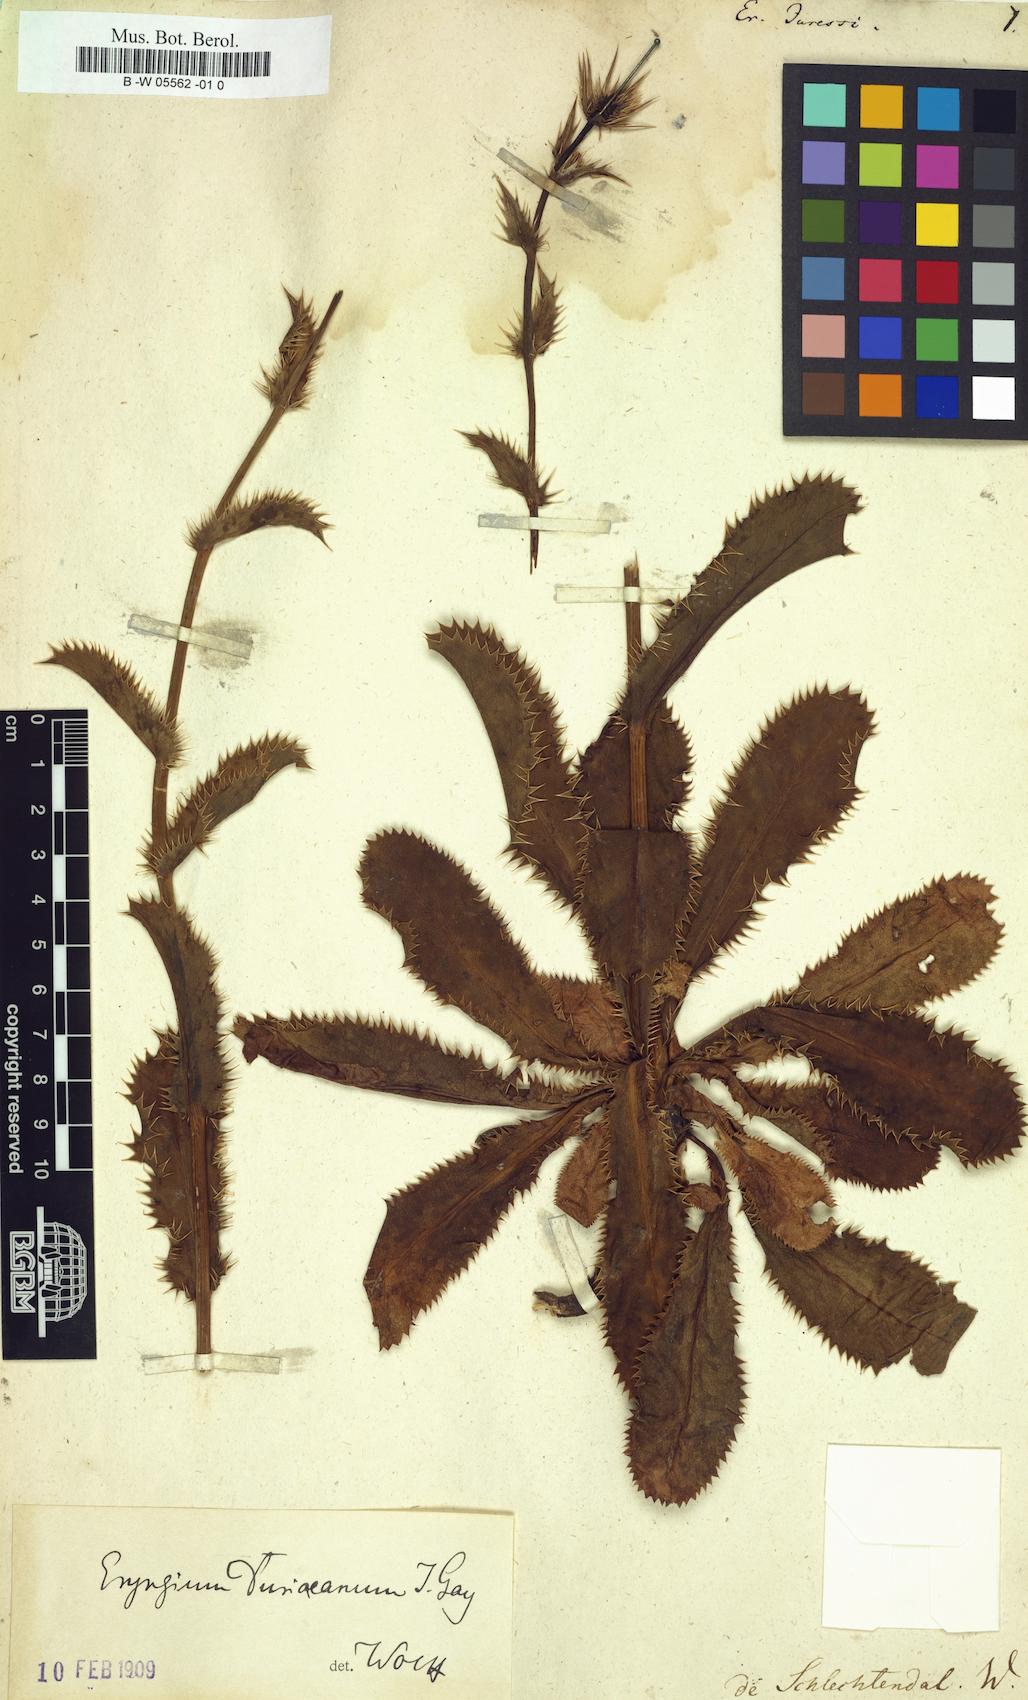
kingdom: Plantae
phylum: Tracheophyta
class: Magnoliopsida
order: Apiales
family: Apiaceae
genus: Eryngium
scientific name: Eryngium
